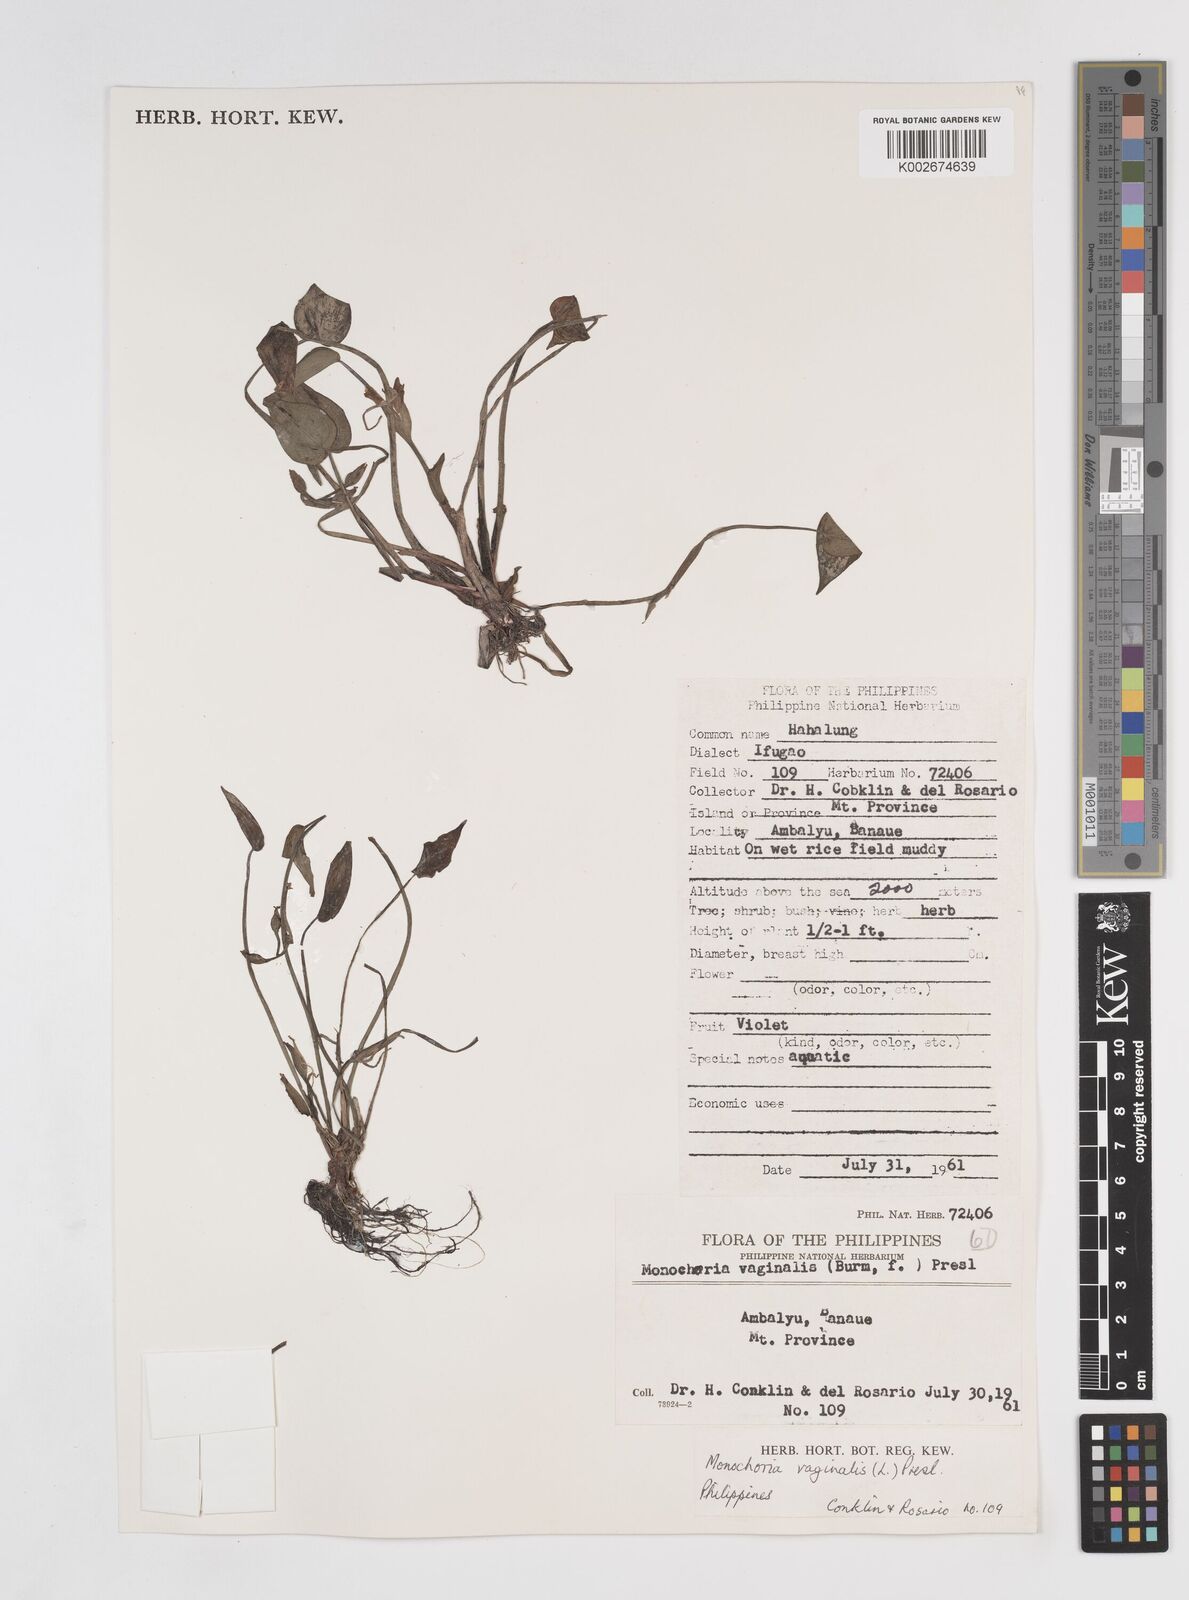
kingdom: Plantae
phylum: Tracheophyta
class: Liliopsida
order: Commelinales
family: Pontederiaceae
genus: Pontederia
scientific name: Pontederia vaginalis
